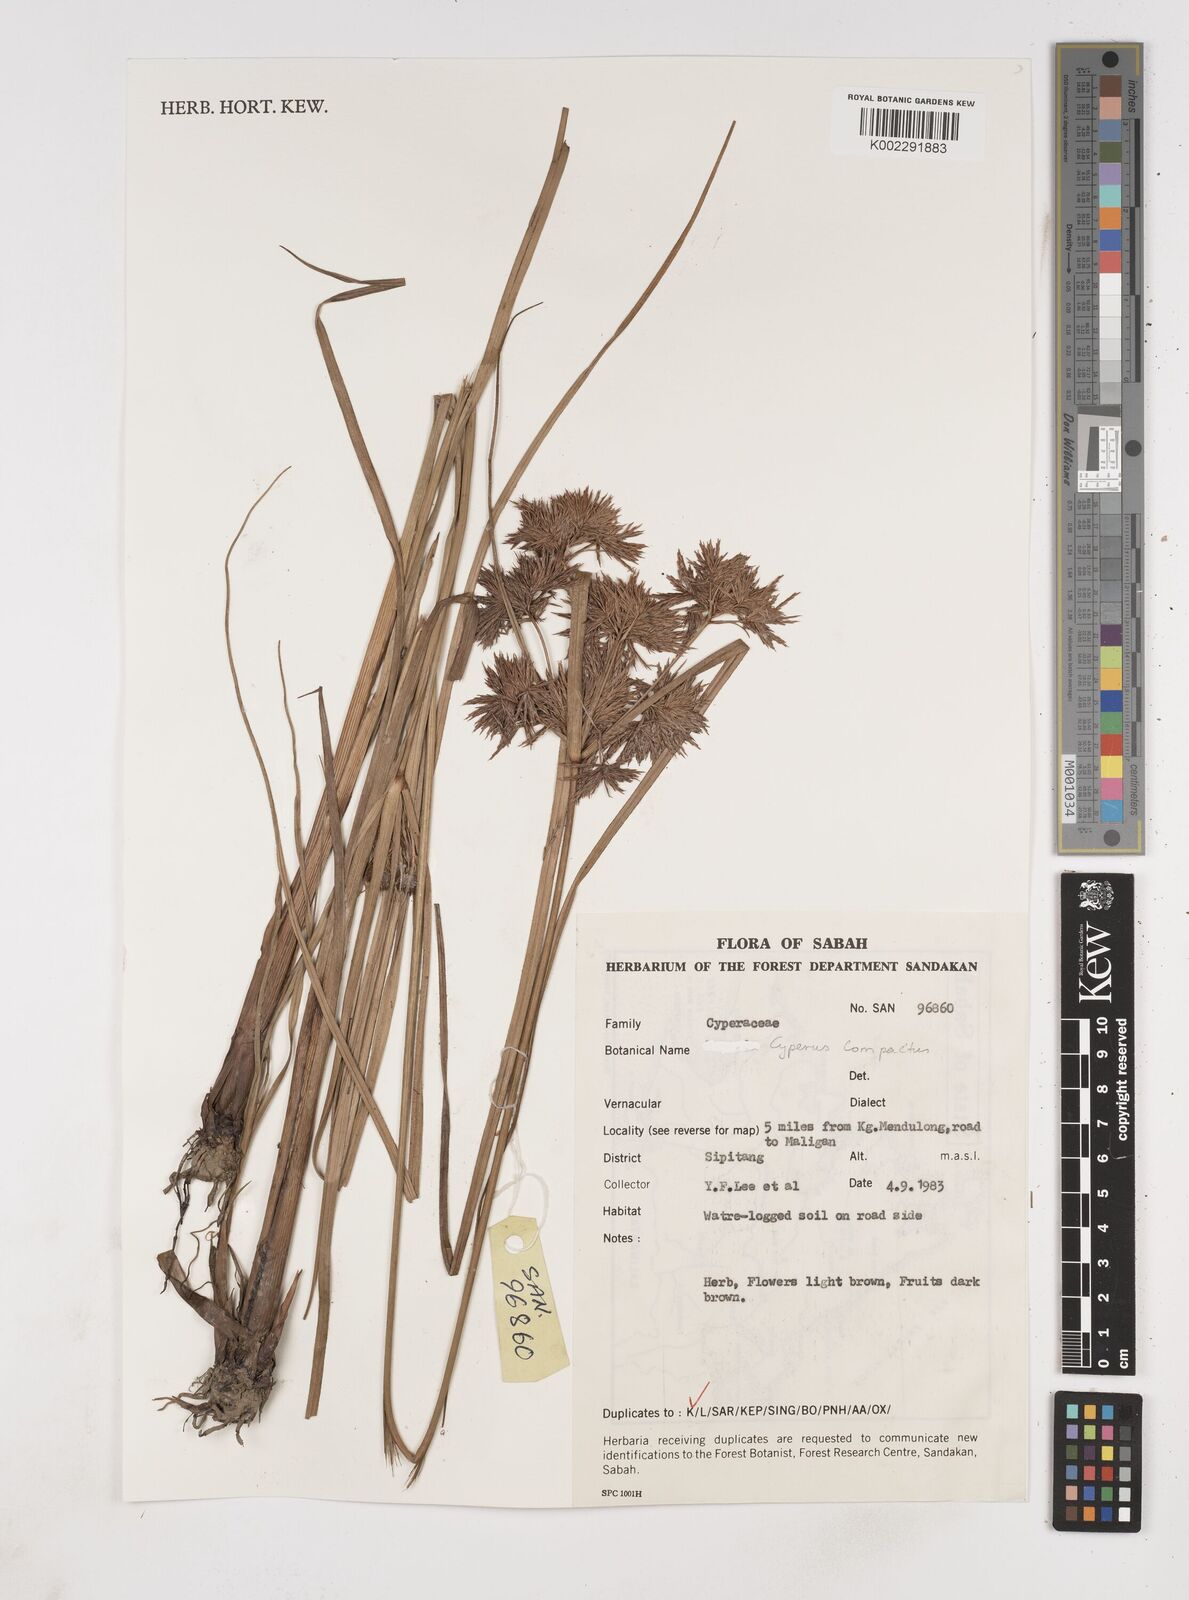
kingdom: Plantae
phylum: Tracheophyta
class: Liliopsida
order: Poales
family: Cyperaceae
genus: Cyperus
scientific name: Cyperus compactus
